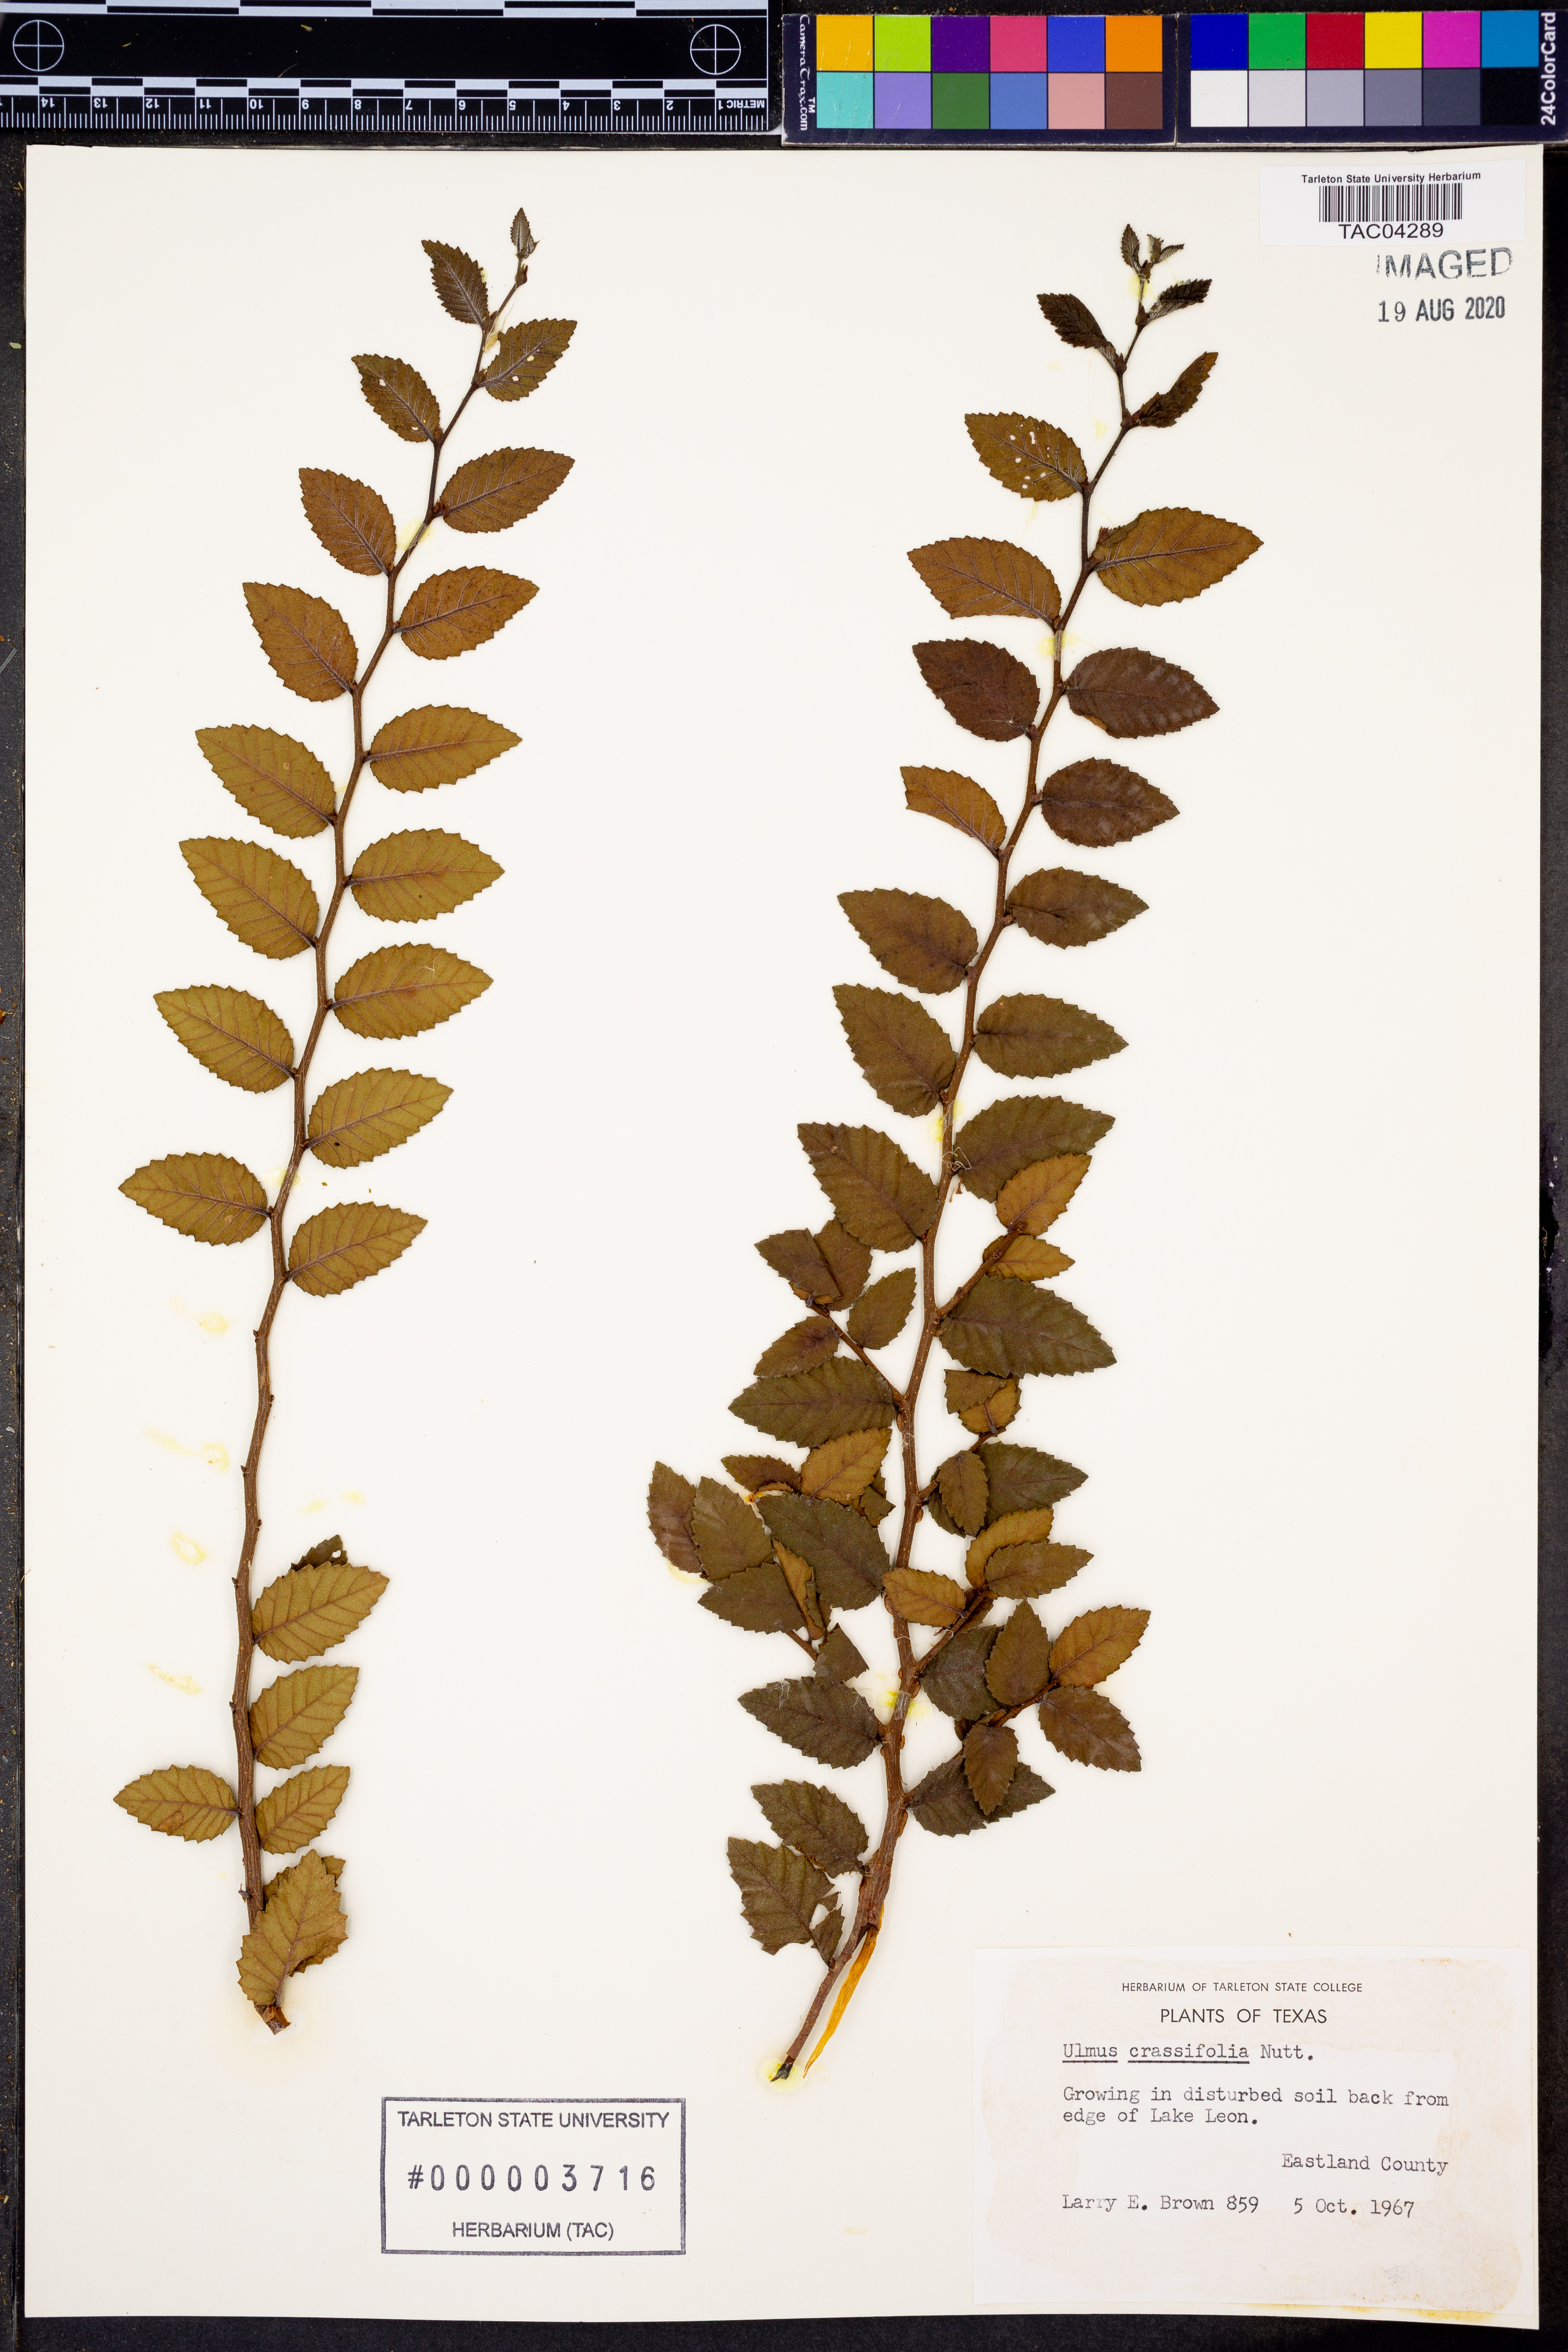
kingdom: Plantae
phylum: Tracheophyta
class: Magnoliopsida
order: Rosales
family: Ulmaceae
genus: Ulmus
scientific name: Ulmus crassifolia
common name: Basket elm
